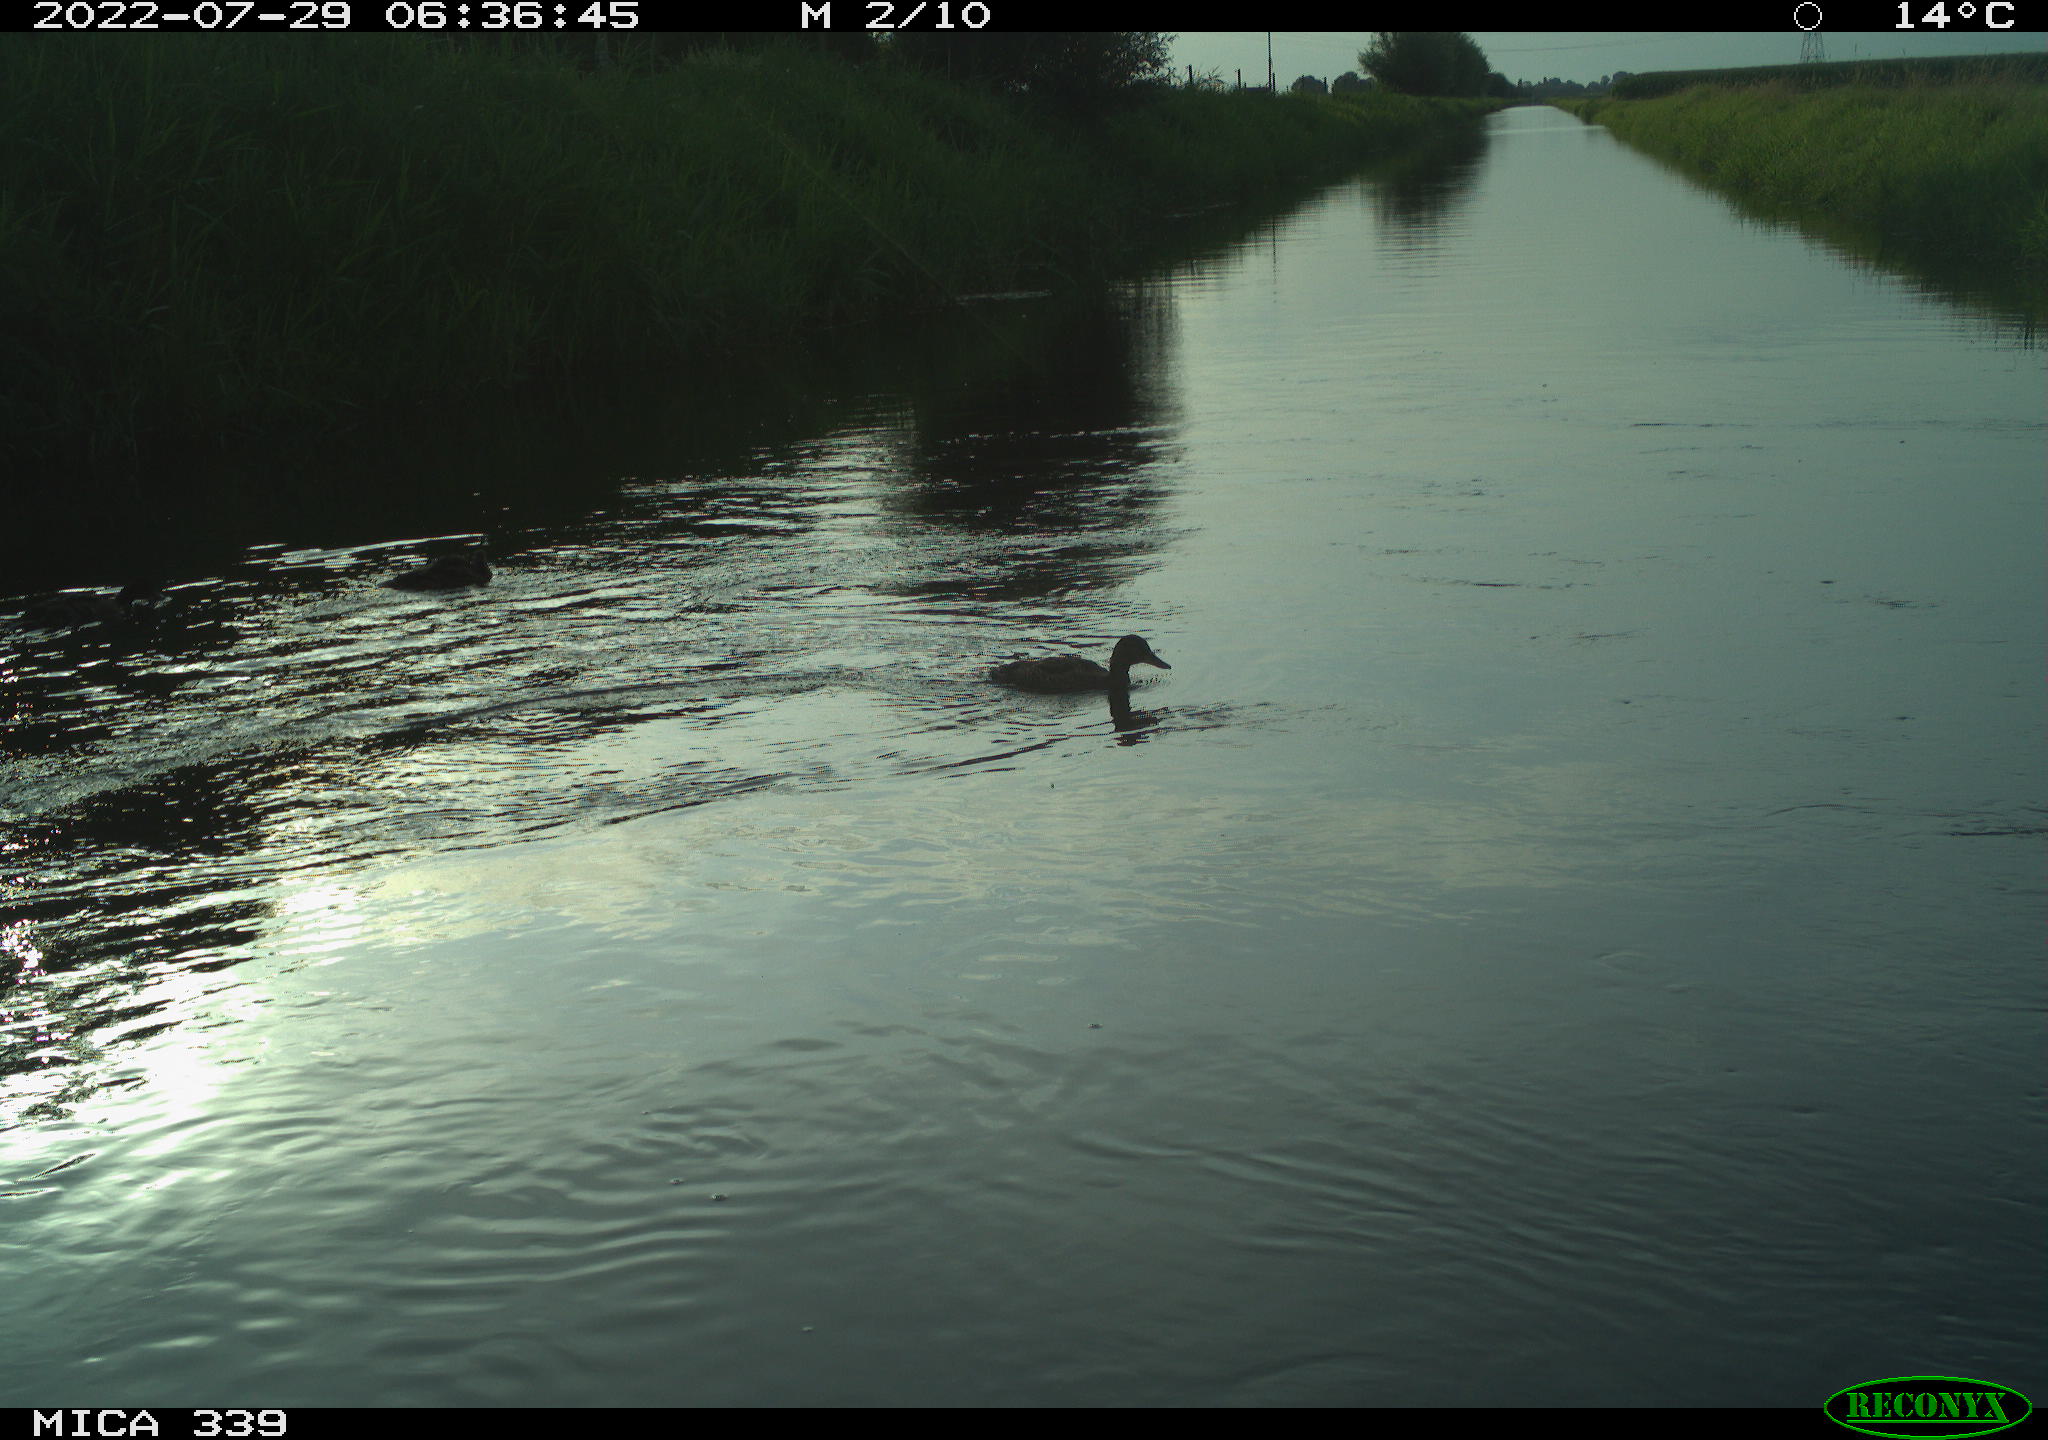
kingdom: Animalia
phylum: Chordata
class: Aves
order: Gruiformes
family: Rallidae
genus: Gallinula
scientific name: Gallinula chloropus
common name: Common moorhen
